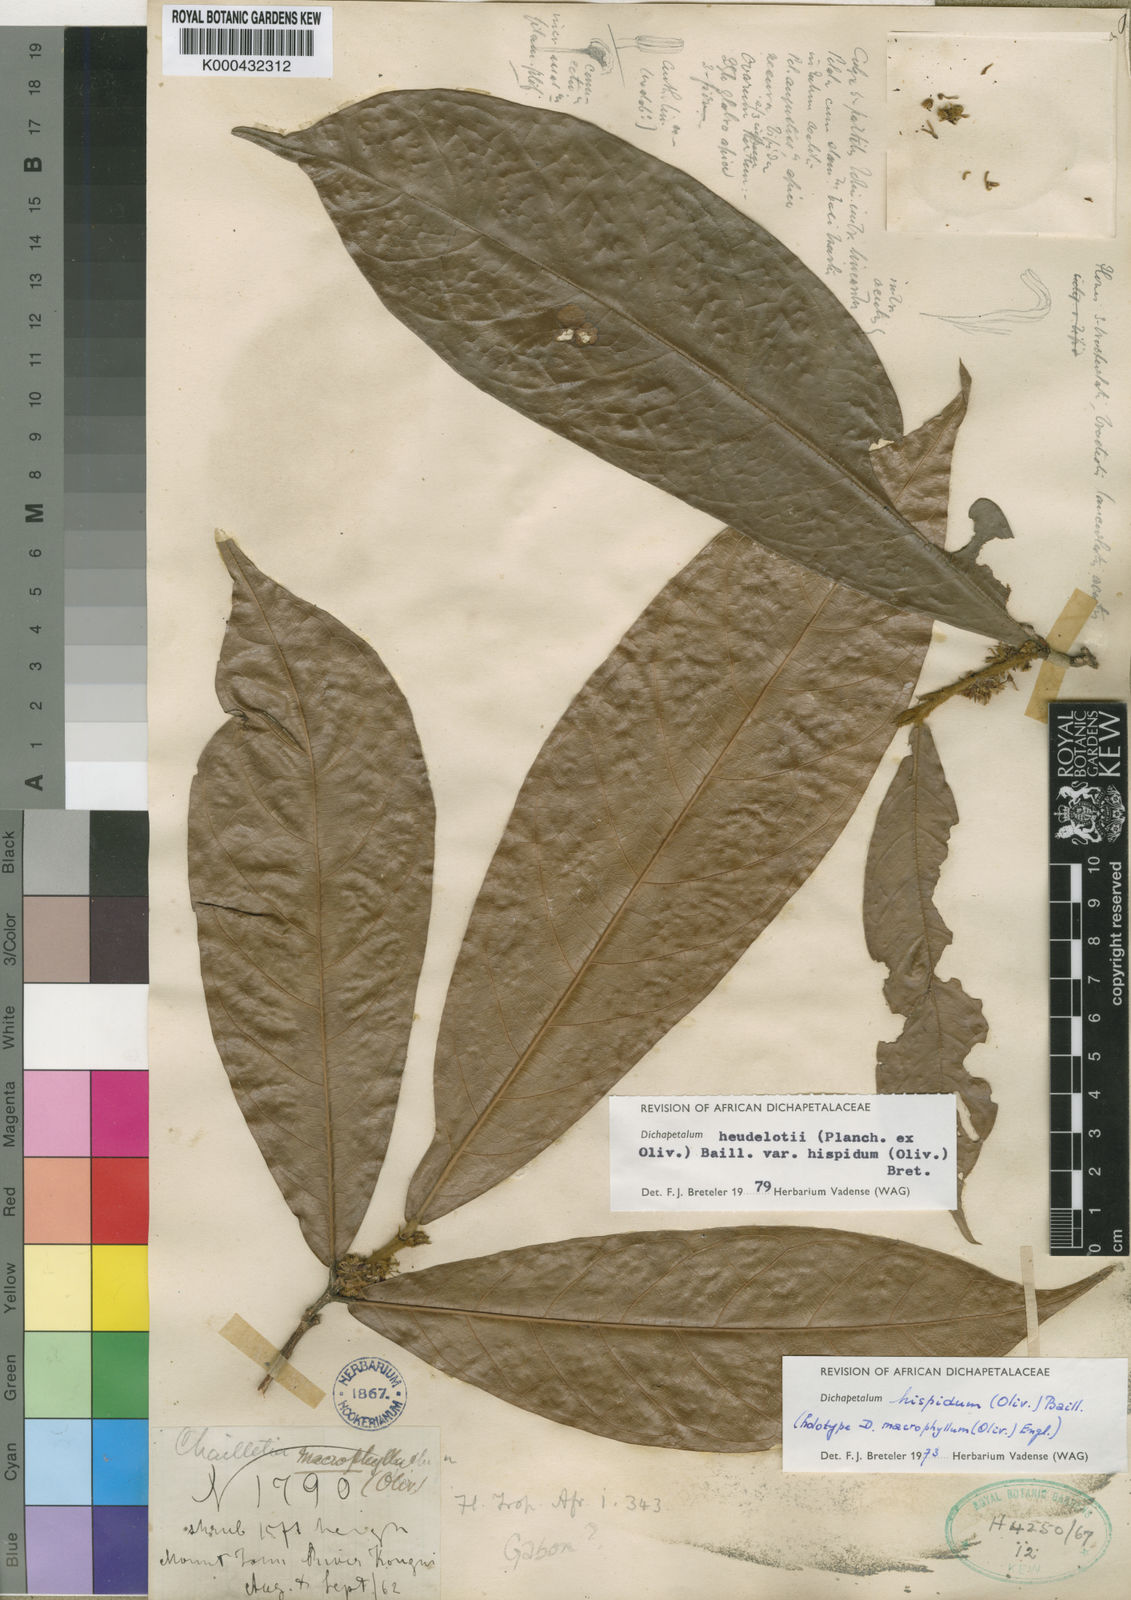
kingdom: Plantae
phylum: Tracheophyta
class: Magnoliopsida
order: Malpighiales
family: Dichapetalaceae
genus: Dichapetalum
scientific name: Dichapetalum heudelotii
